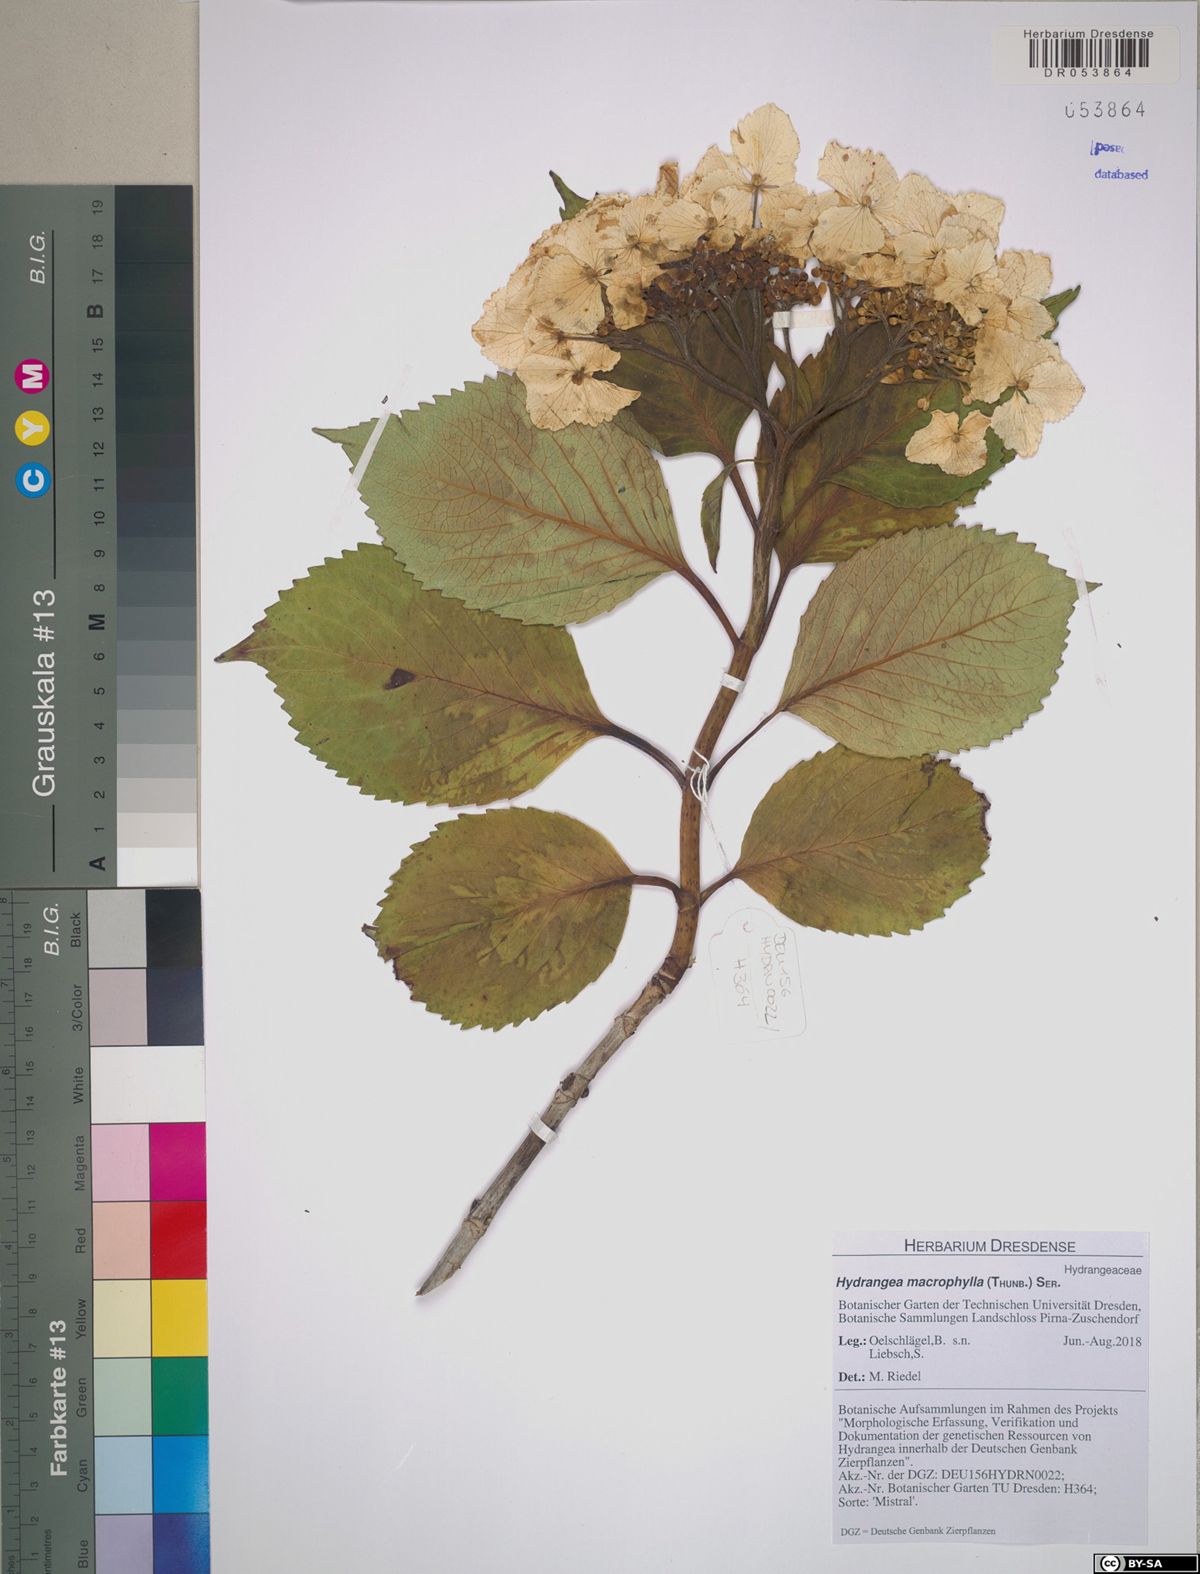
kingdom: Plantae
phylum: Tracheophyta
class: Magnoliopsida
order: Cornales
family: Hydrangeaceae
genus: Hydrangea
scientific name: Hydrangea macrophylla
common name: Hydrangea
